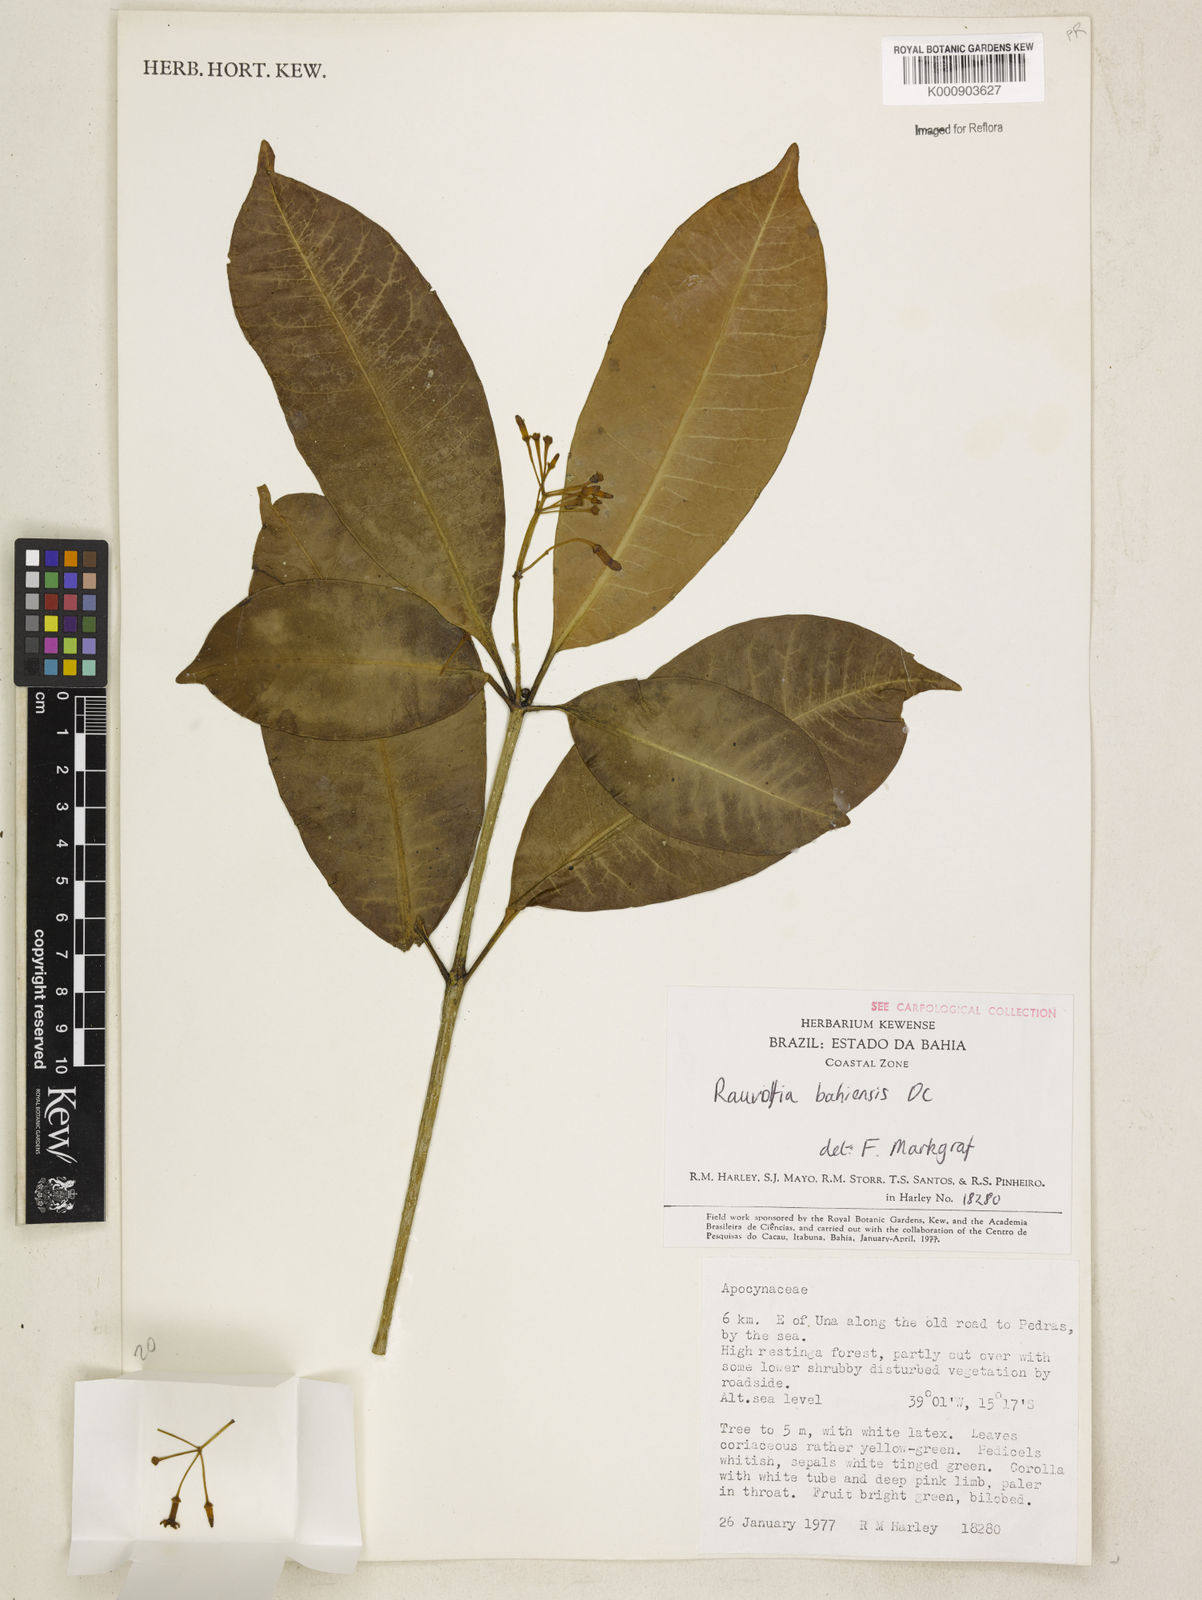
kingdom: Plantae
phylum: Tracheophyta
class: Magnoliopsida
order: Gentianales
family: Apocynaceae
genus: Rauvolfia
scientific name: Rauvolfia bahiensis
